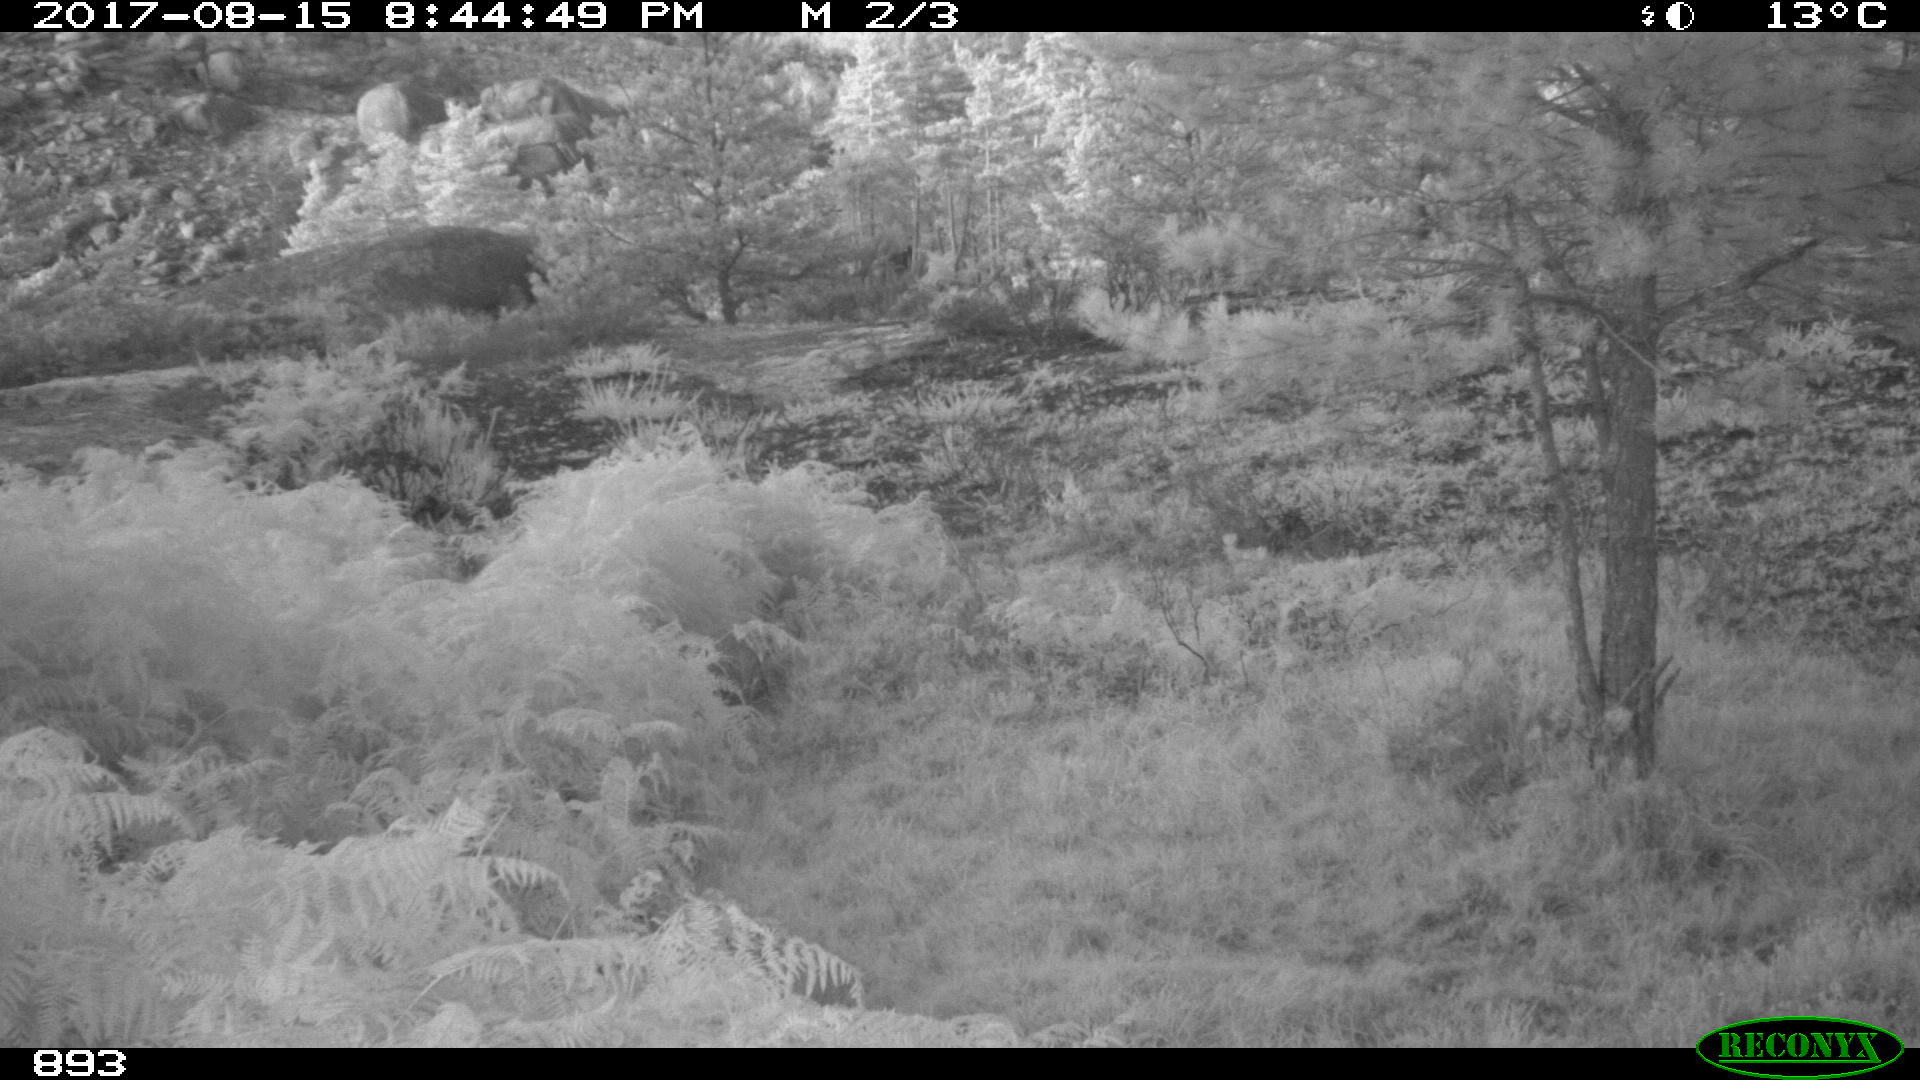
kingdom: Animalia
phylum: Chordata
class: Mammalia
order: Perissodactyla
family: Equidae
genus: Equus
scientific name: Equus caballus
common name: Horse
